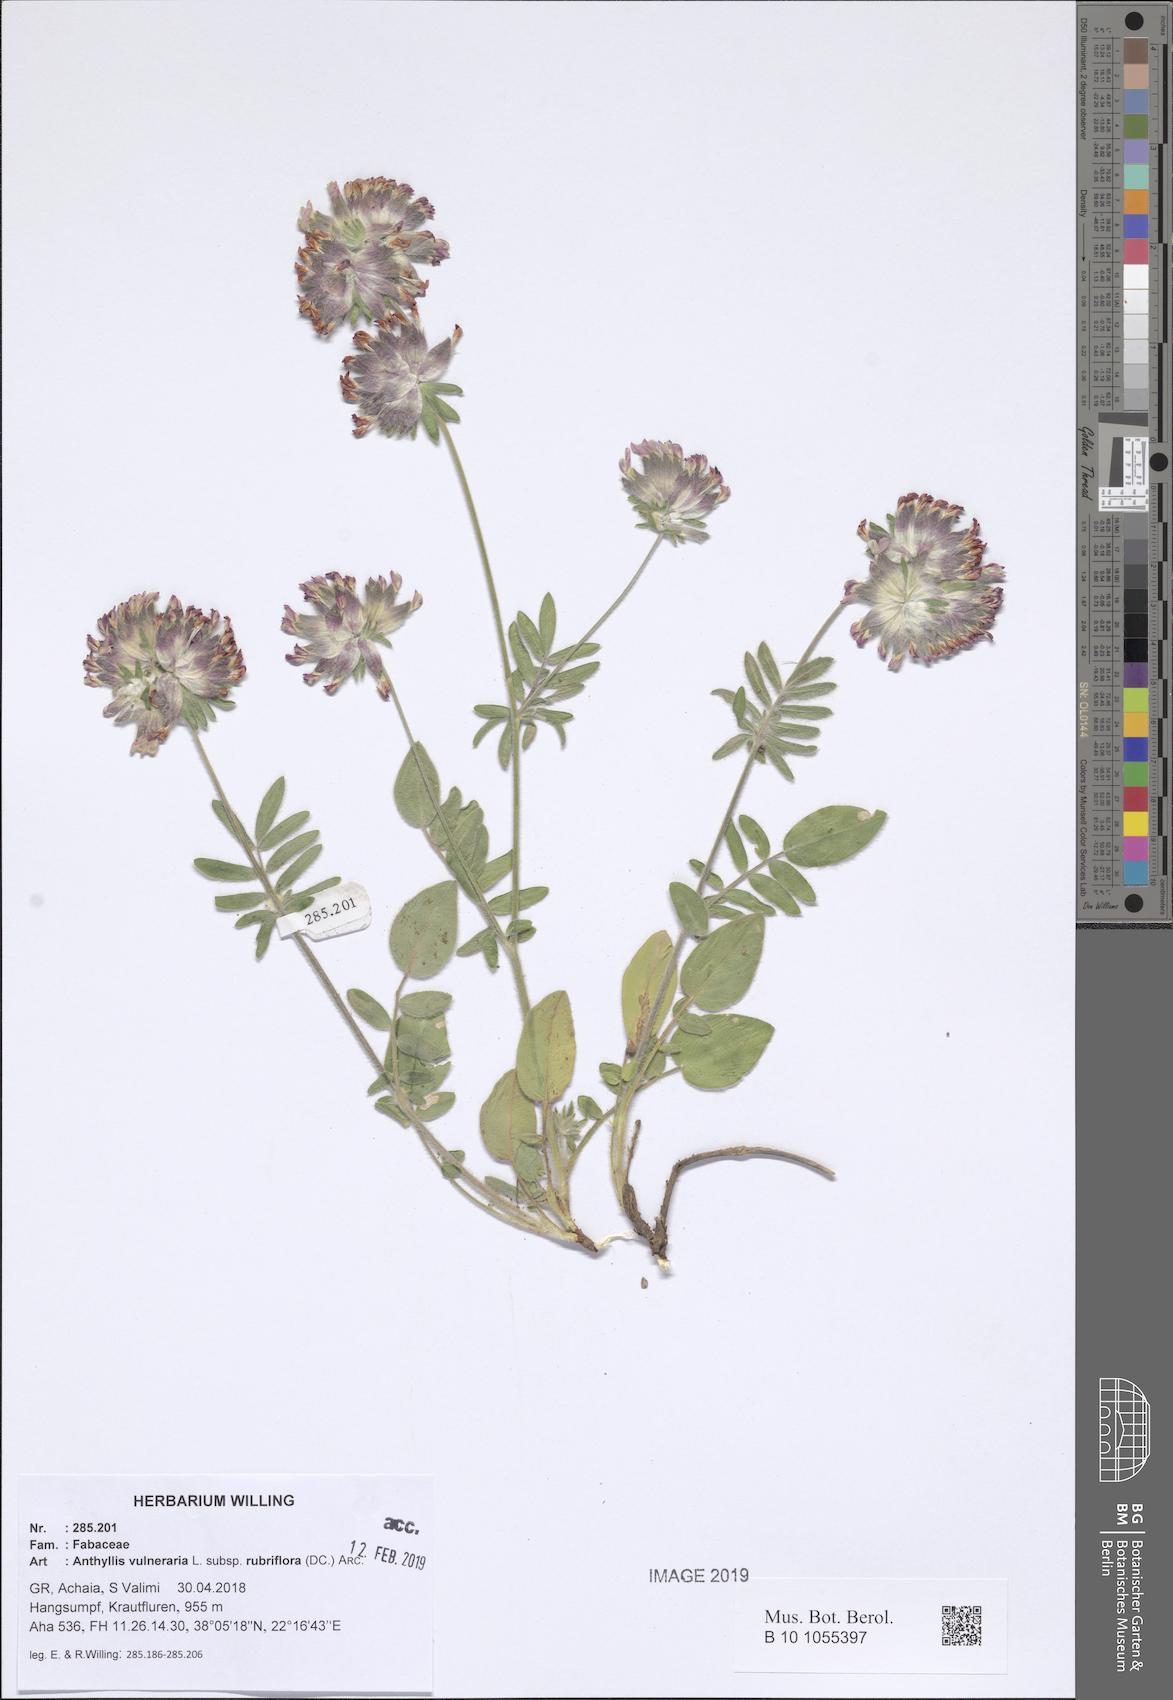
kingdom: Plantae
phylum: Tracheophyta
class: Magnoliopsida
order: Fabales
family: Fabaceae
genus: Anthyllis
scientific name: Anthyllis vulneraria
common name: Kidney vetch
